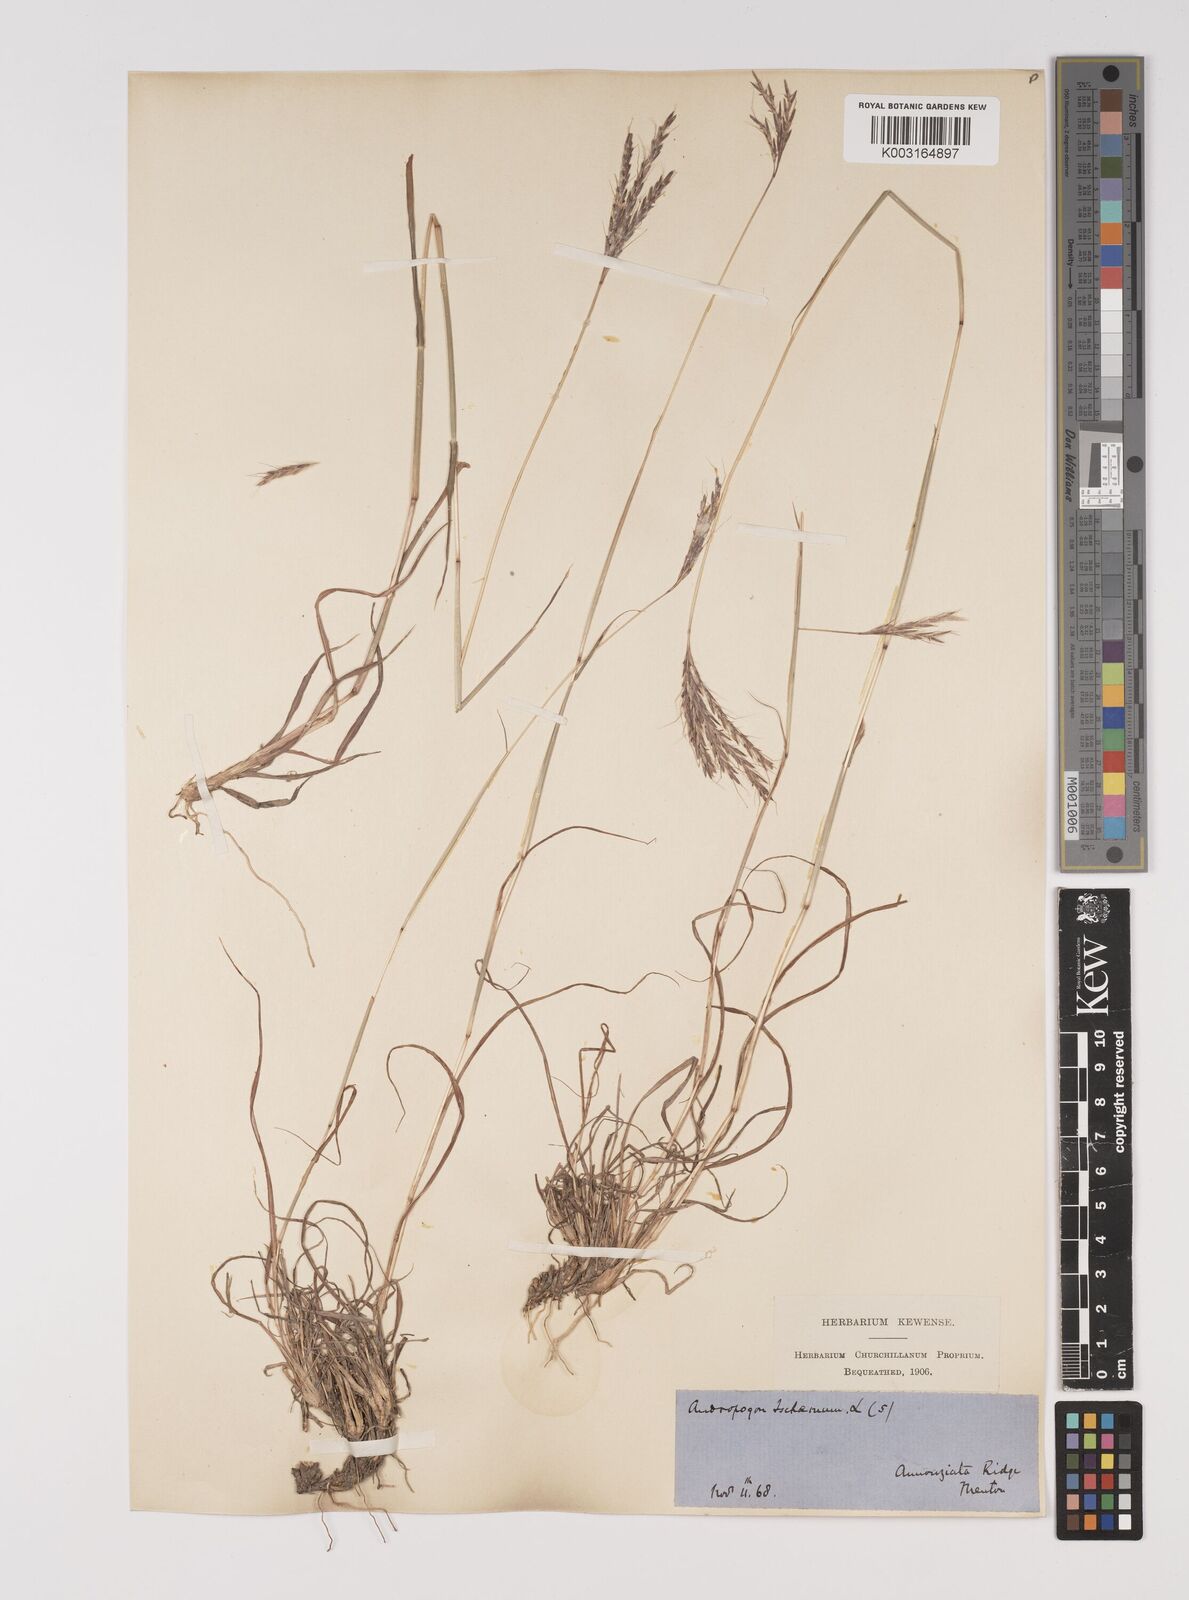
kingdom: Plantae
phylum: Tracheophyta
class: Liliopsida
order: Poales
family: Poaceae
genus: Bothriochloa
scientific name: Bothriochloa ischaemum
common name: Yellow bluestem
